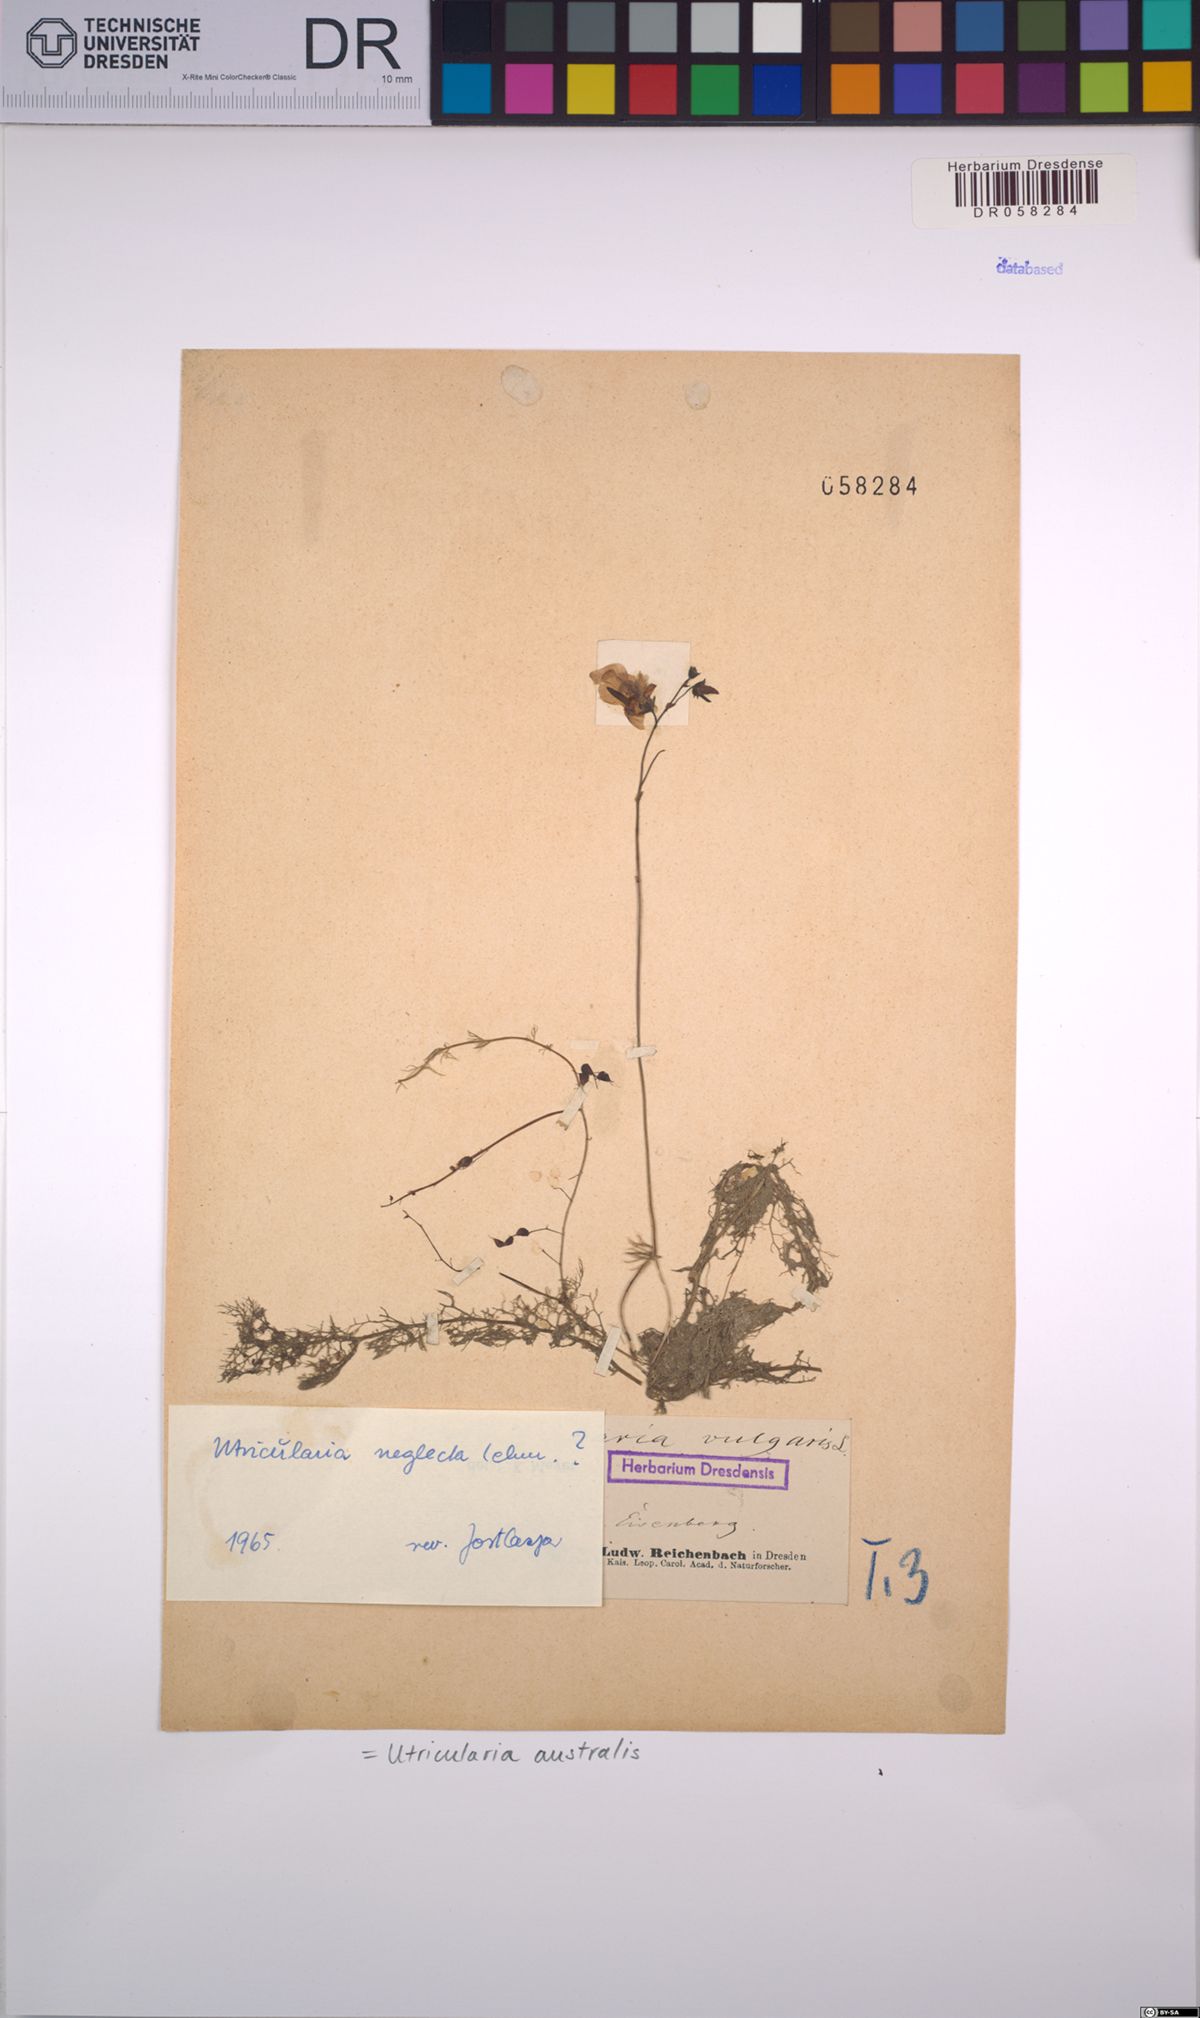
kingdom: Plantae
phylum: Tracheophyta
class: Magnoliopsida
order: Lamiales
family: Lentibulariaceae
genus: Utricularia
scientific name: Utricularia australis
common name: Bladderwort
